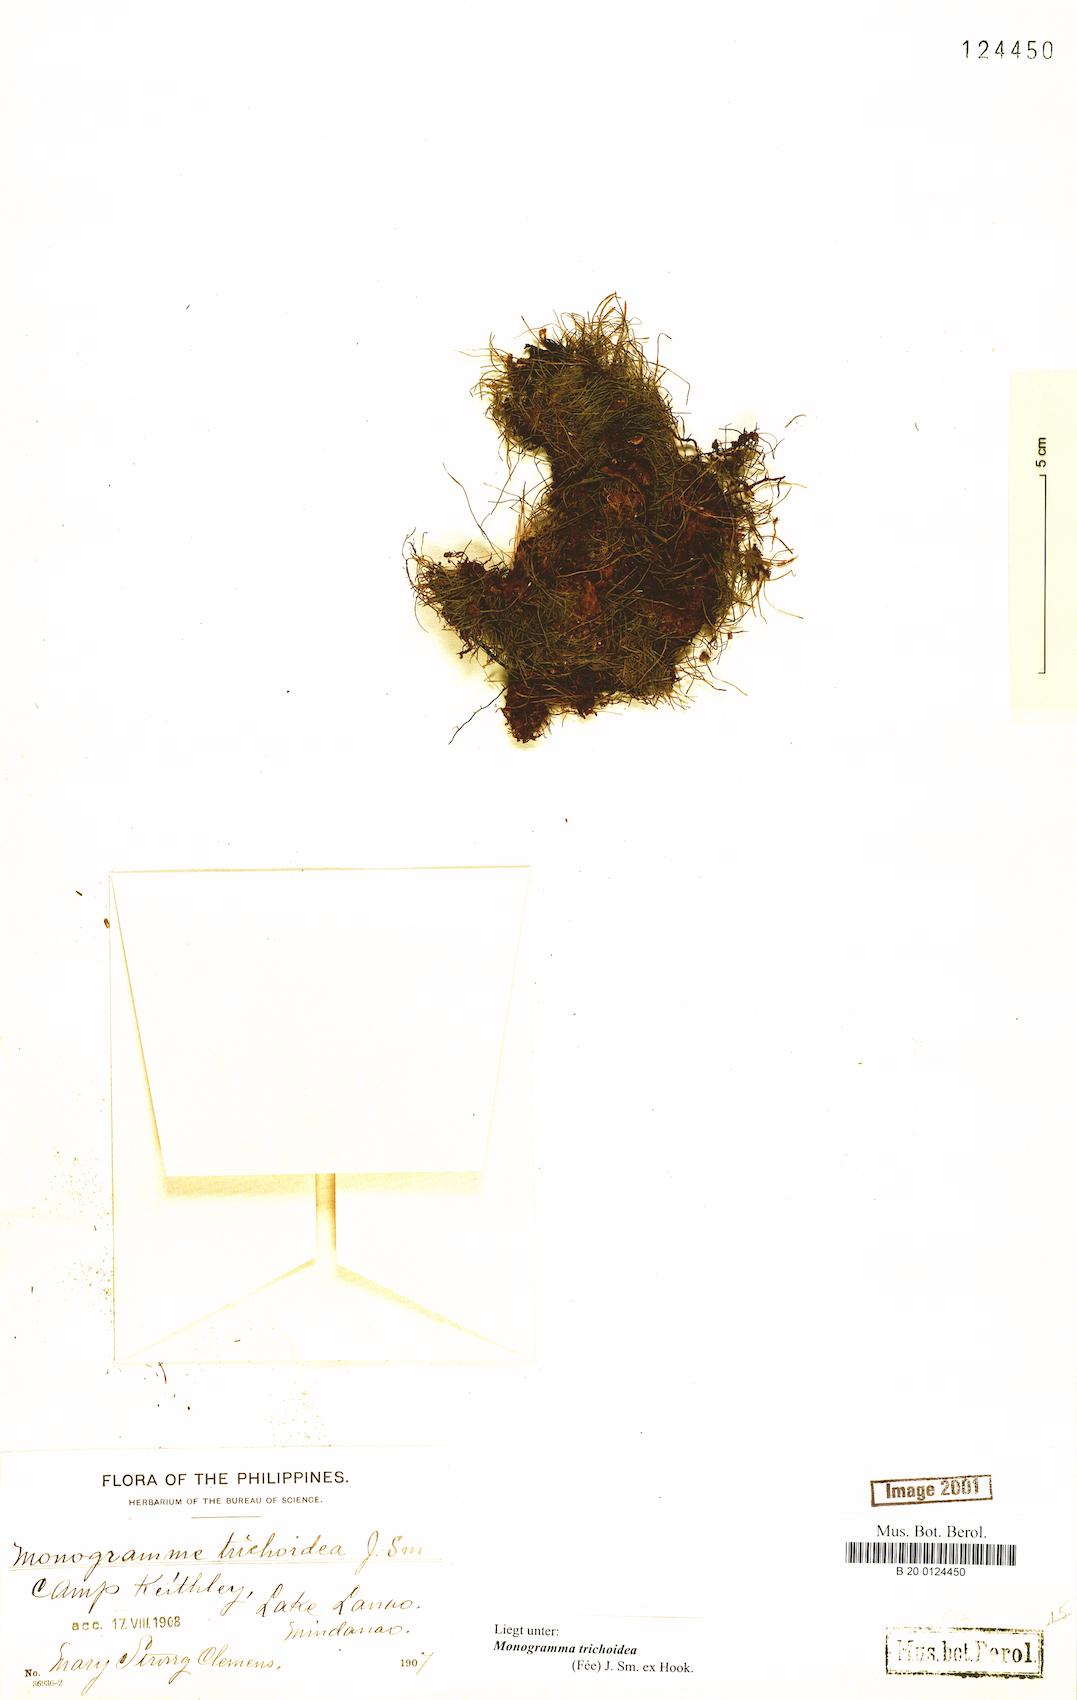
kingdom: Plantae
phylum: Tracheophyta
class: Polypodiopsida
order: Polypodiales
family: Pteridaceae
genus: Vaginularia
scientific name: Vaginularia trichoidea
